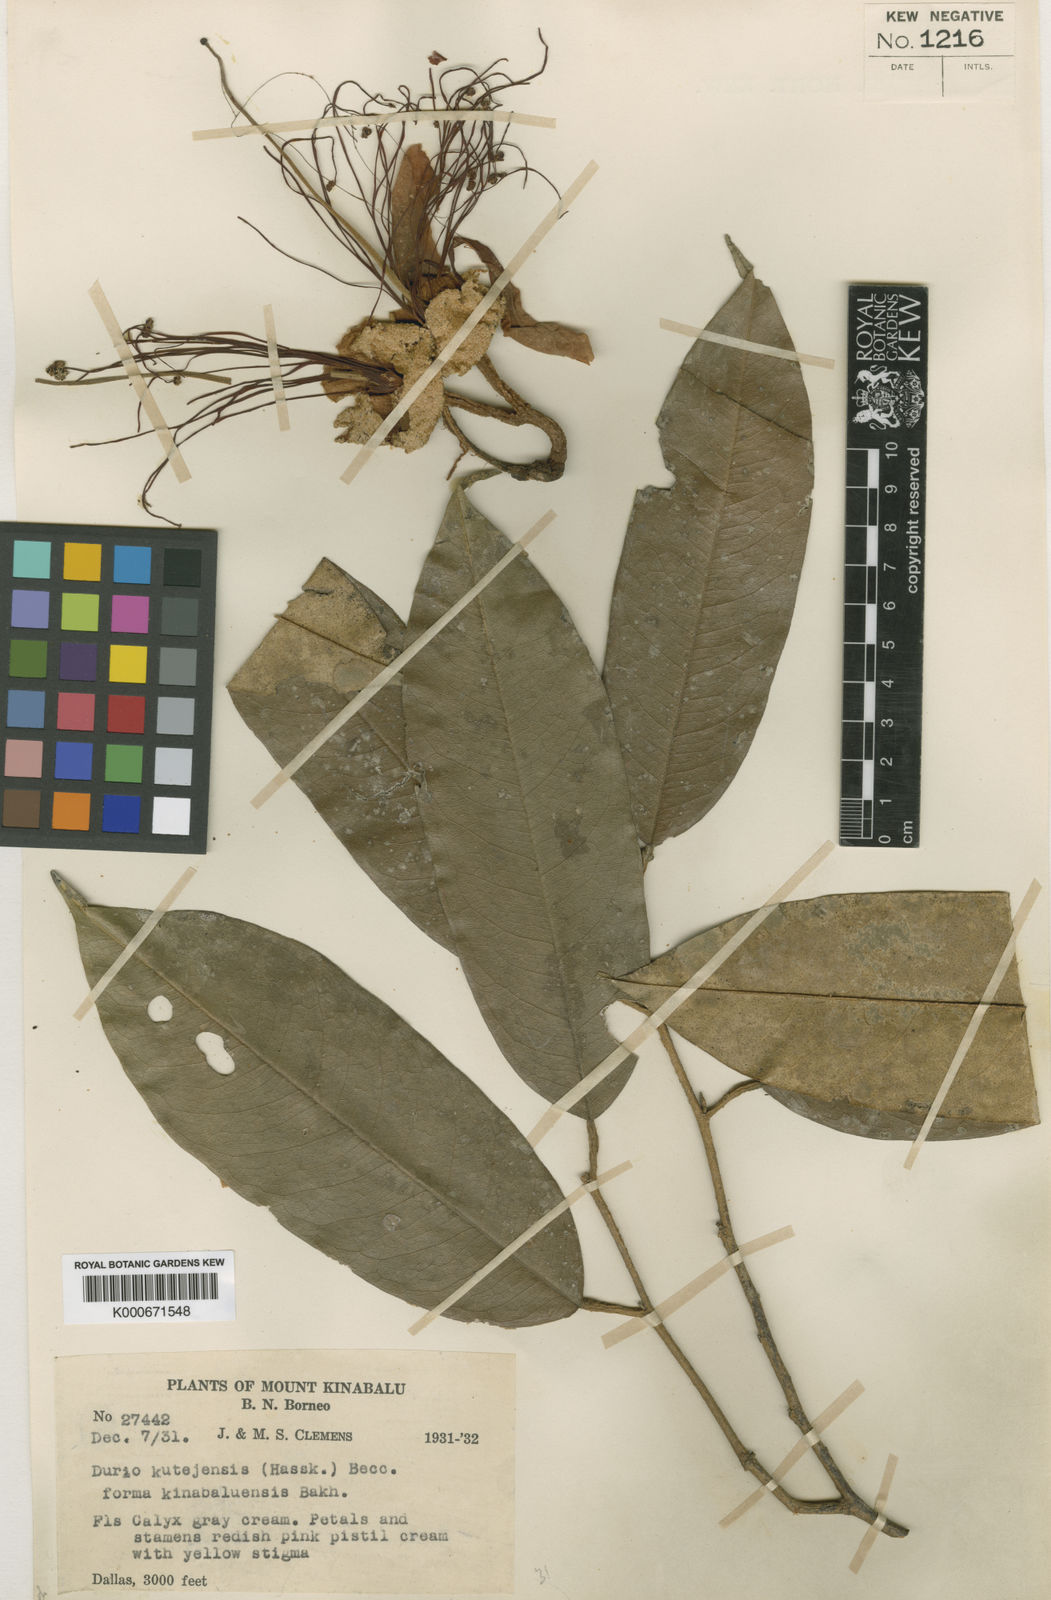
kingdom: Plantae
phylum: Tracheophyta
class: Magnoliopsida
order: Malvales
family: Malvaceae
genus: Durio
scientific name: Durio kinabaluensis
